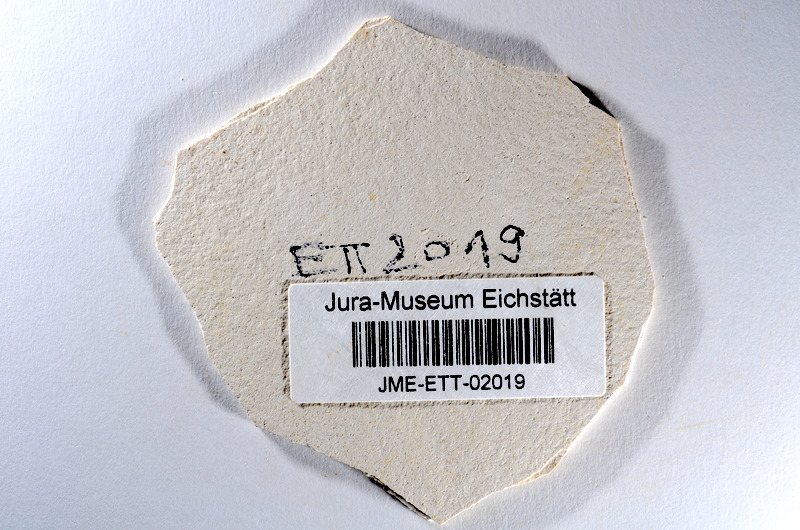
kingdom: Animalia
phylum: Chordata
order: Salmoniformes
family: Orthogonikleithridae
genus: Orthogonikleithrus
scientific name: Orthogonikleithrus hoelli
